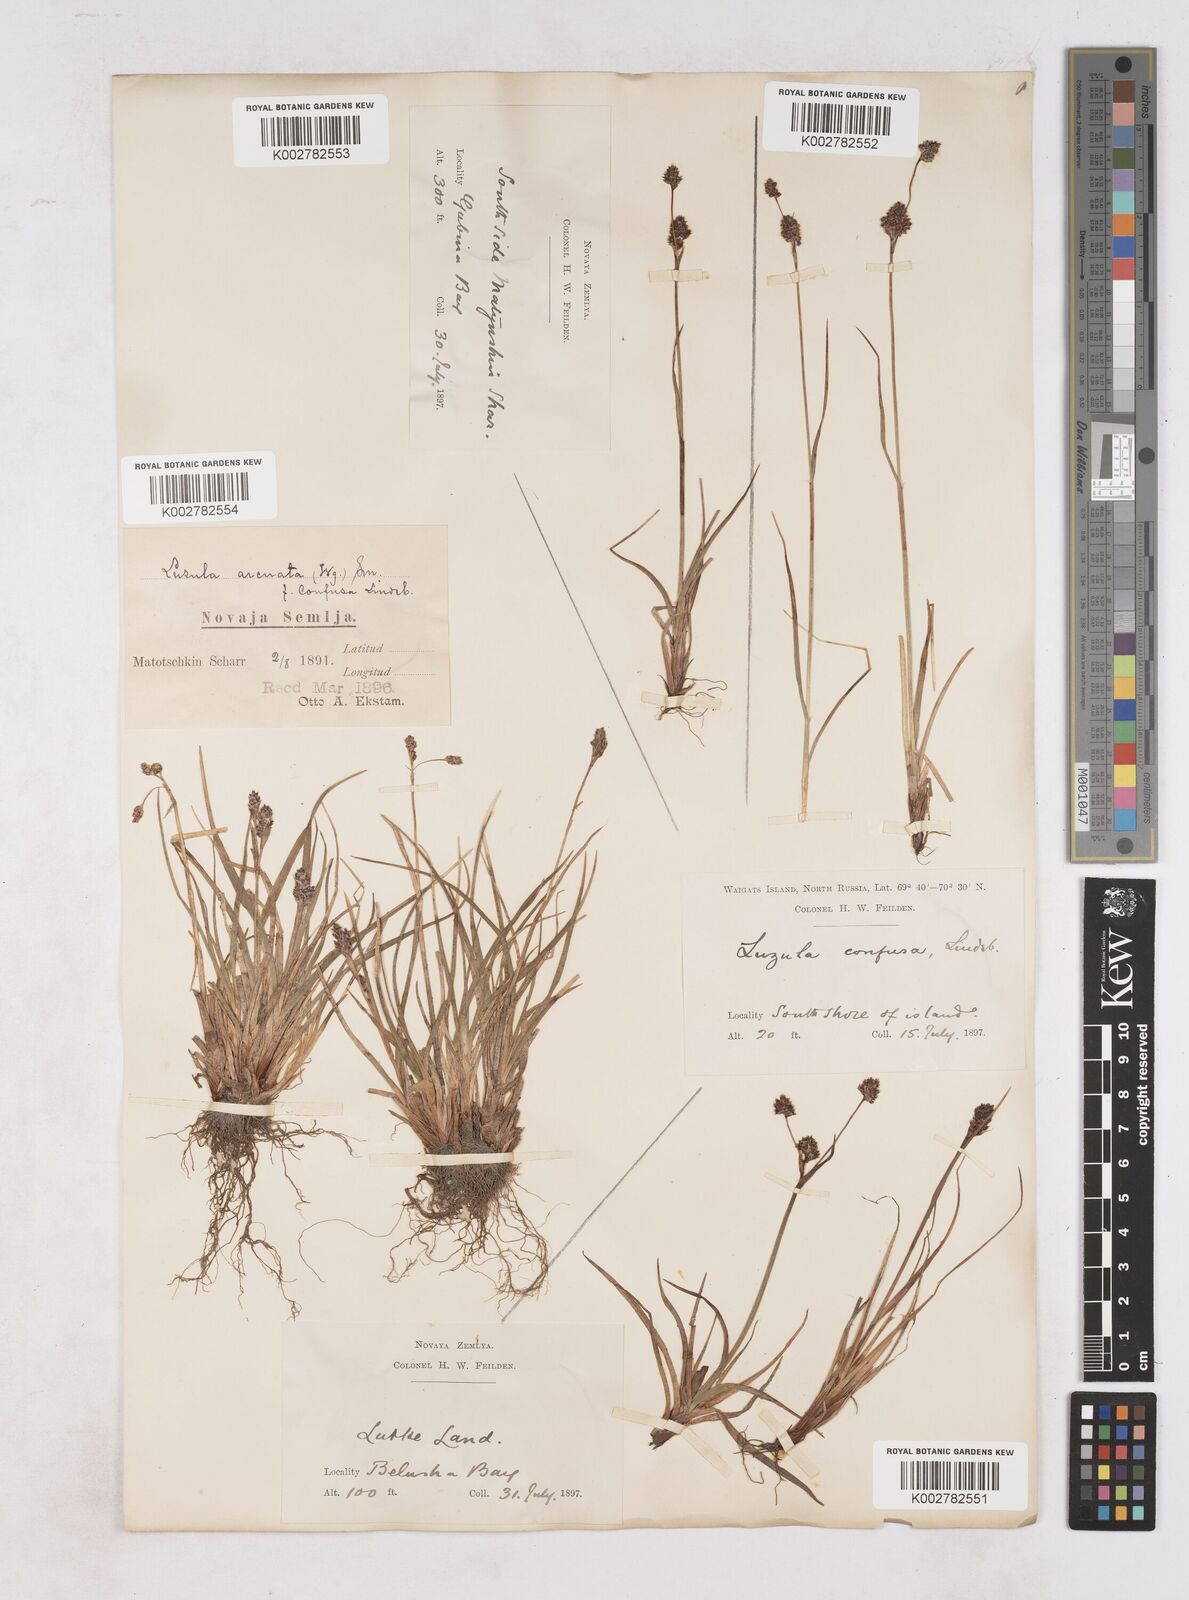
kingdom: Plantae
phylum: Tracheophyta
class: Liliopsida
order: Poales
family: Juncaceae
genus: Luzula
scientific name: Luzula confusa
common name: Northern wood rush
